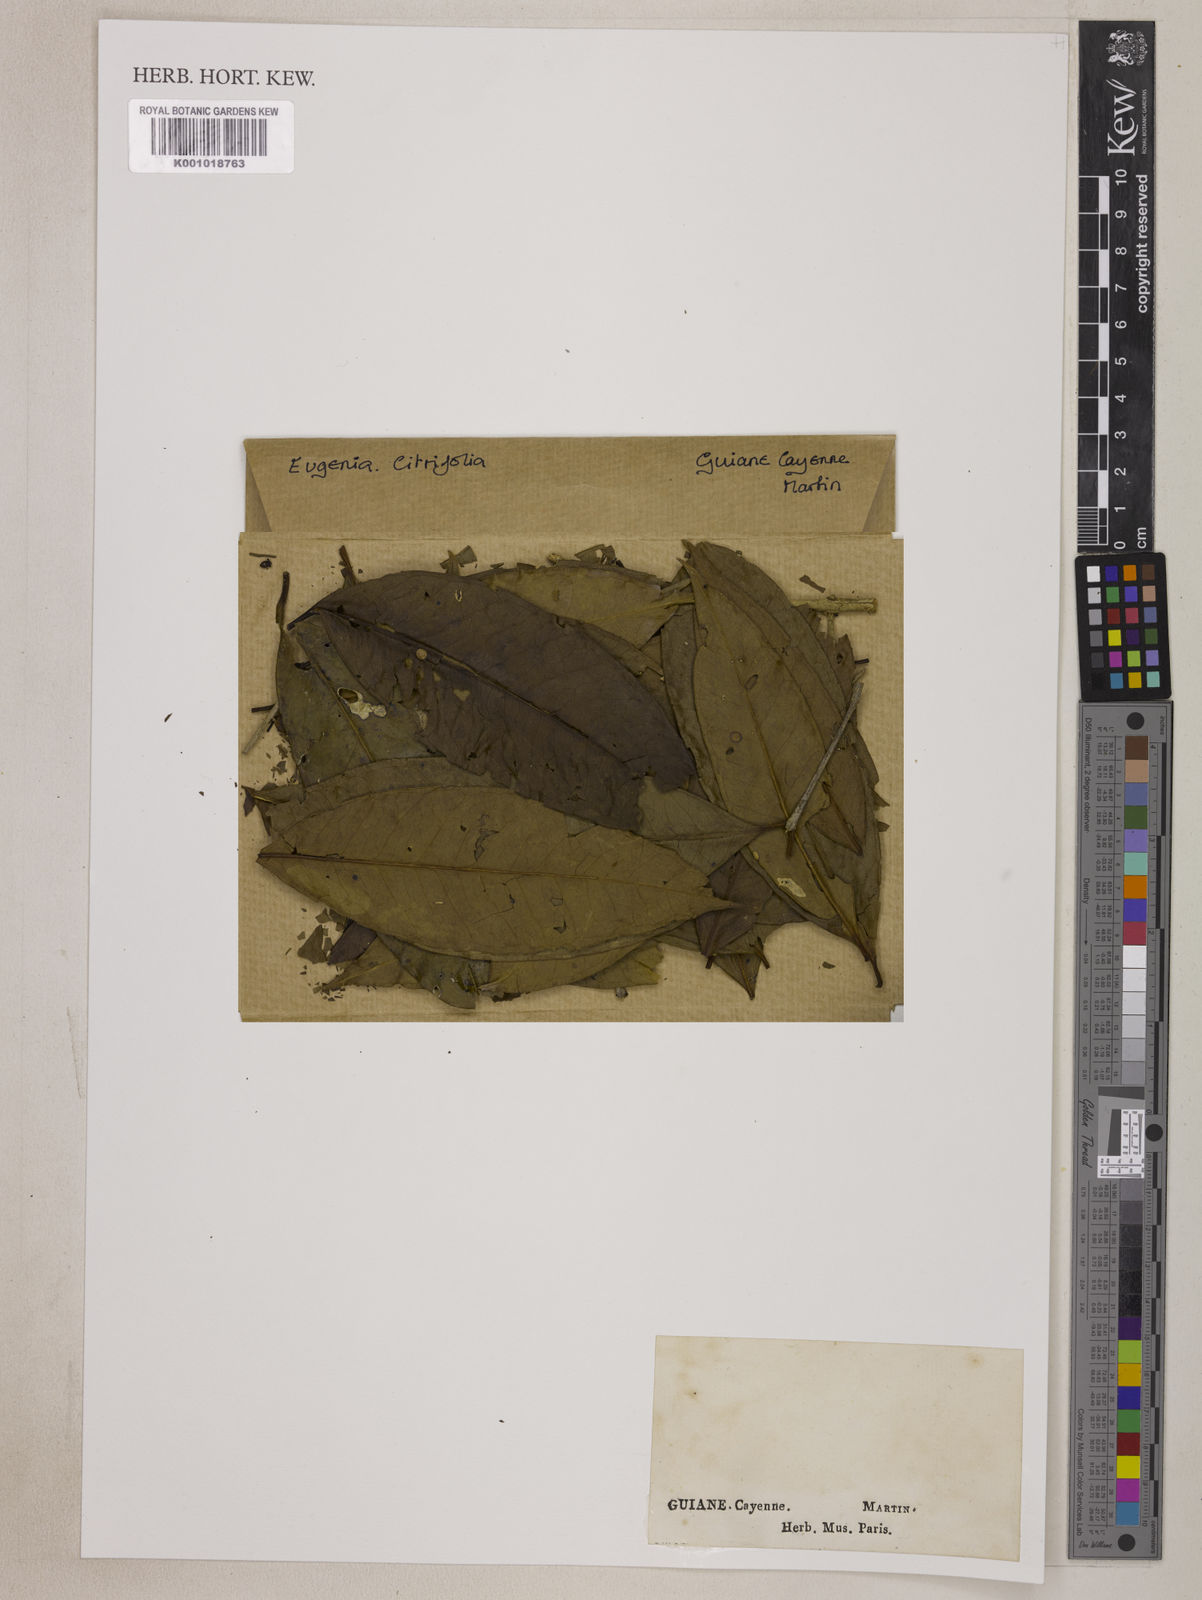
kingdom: Plantae
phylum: Tracheophyta
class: Magnoliopsida
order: Myrtales
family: Myrtaceae
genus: Eugenia
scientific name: Eugenia citrifolia
